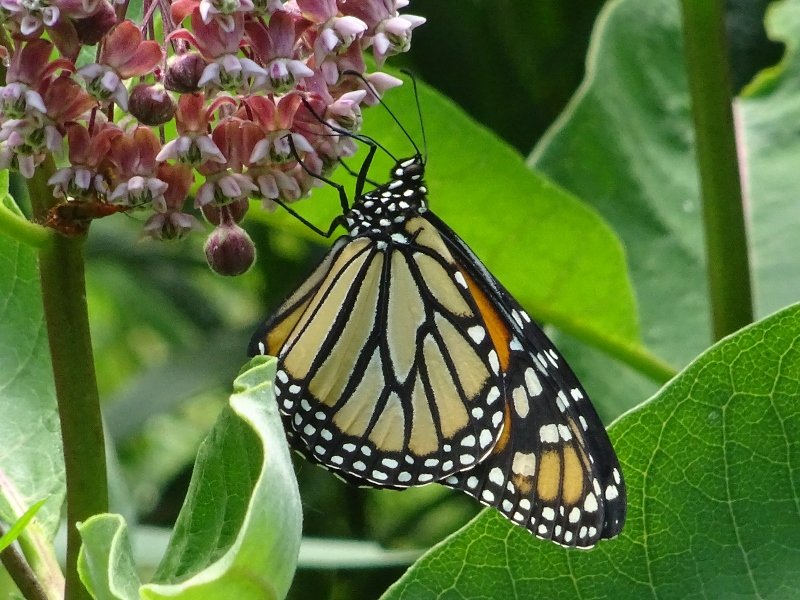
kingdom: Animalia
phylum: Arthropoda
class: Insecta
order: Lepidoptera
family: Nymphalidae
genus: Danaus
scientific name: Danaus plexippus
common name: Monarch
